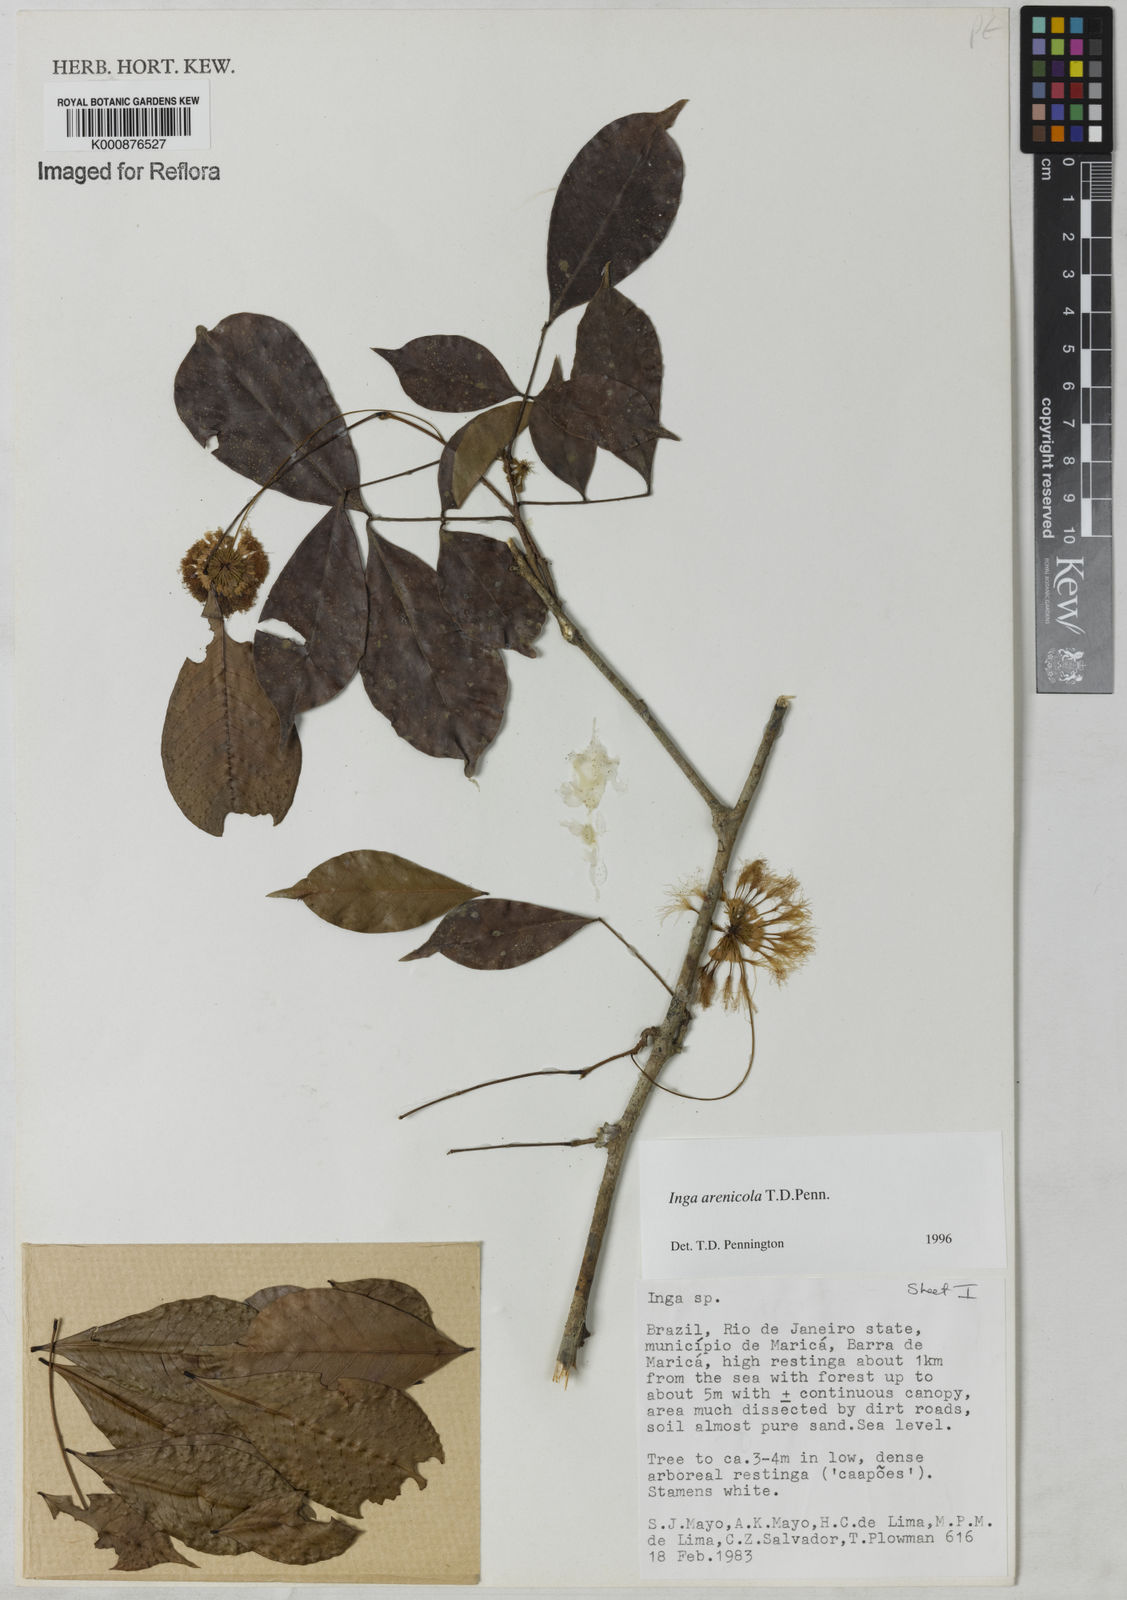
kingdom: Plantae
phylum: Tracheophyta
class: Magnoliopsida
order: Fabales
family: Fabaceae
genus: Inga
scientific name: Inga arenicola
